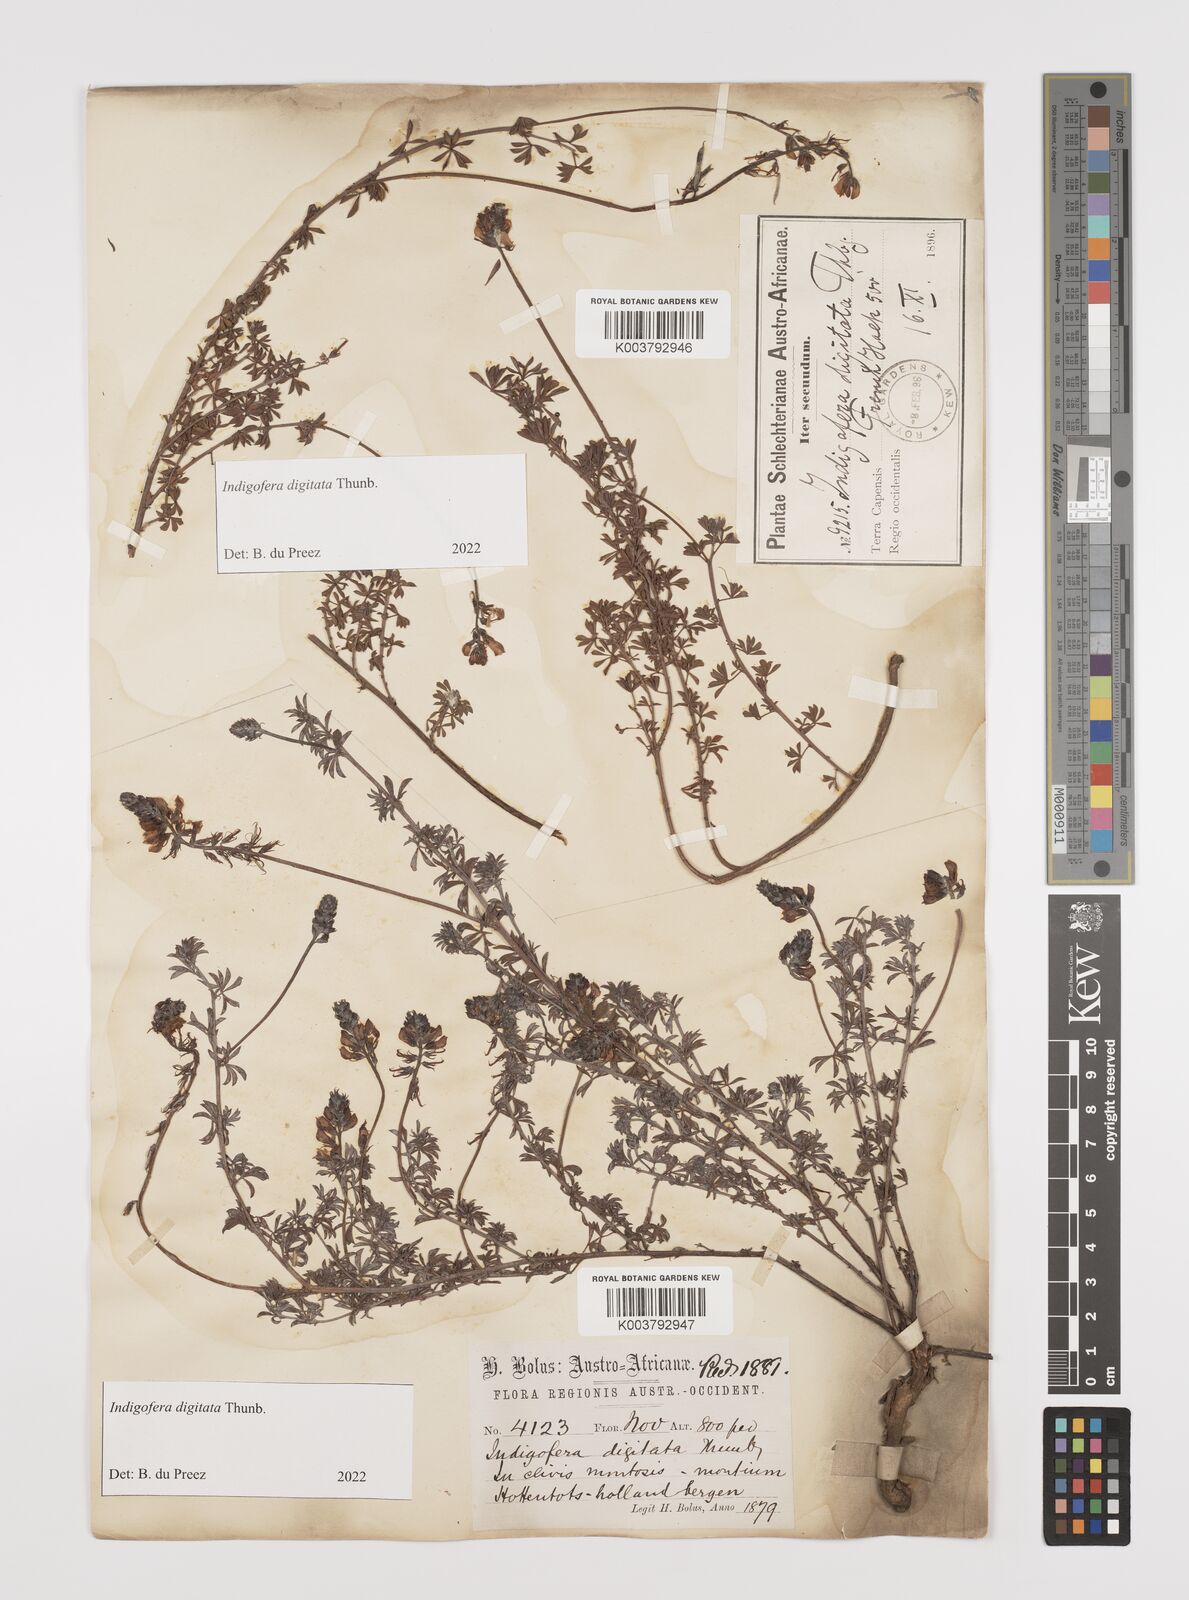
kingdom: Plantae
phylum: Tracheophyta
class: Magnoliopsida
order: Fabales
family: Fabaceae
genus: Indigofera
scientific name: Indigofera
